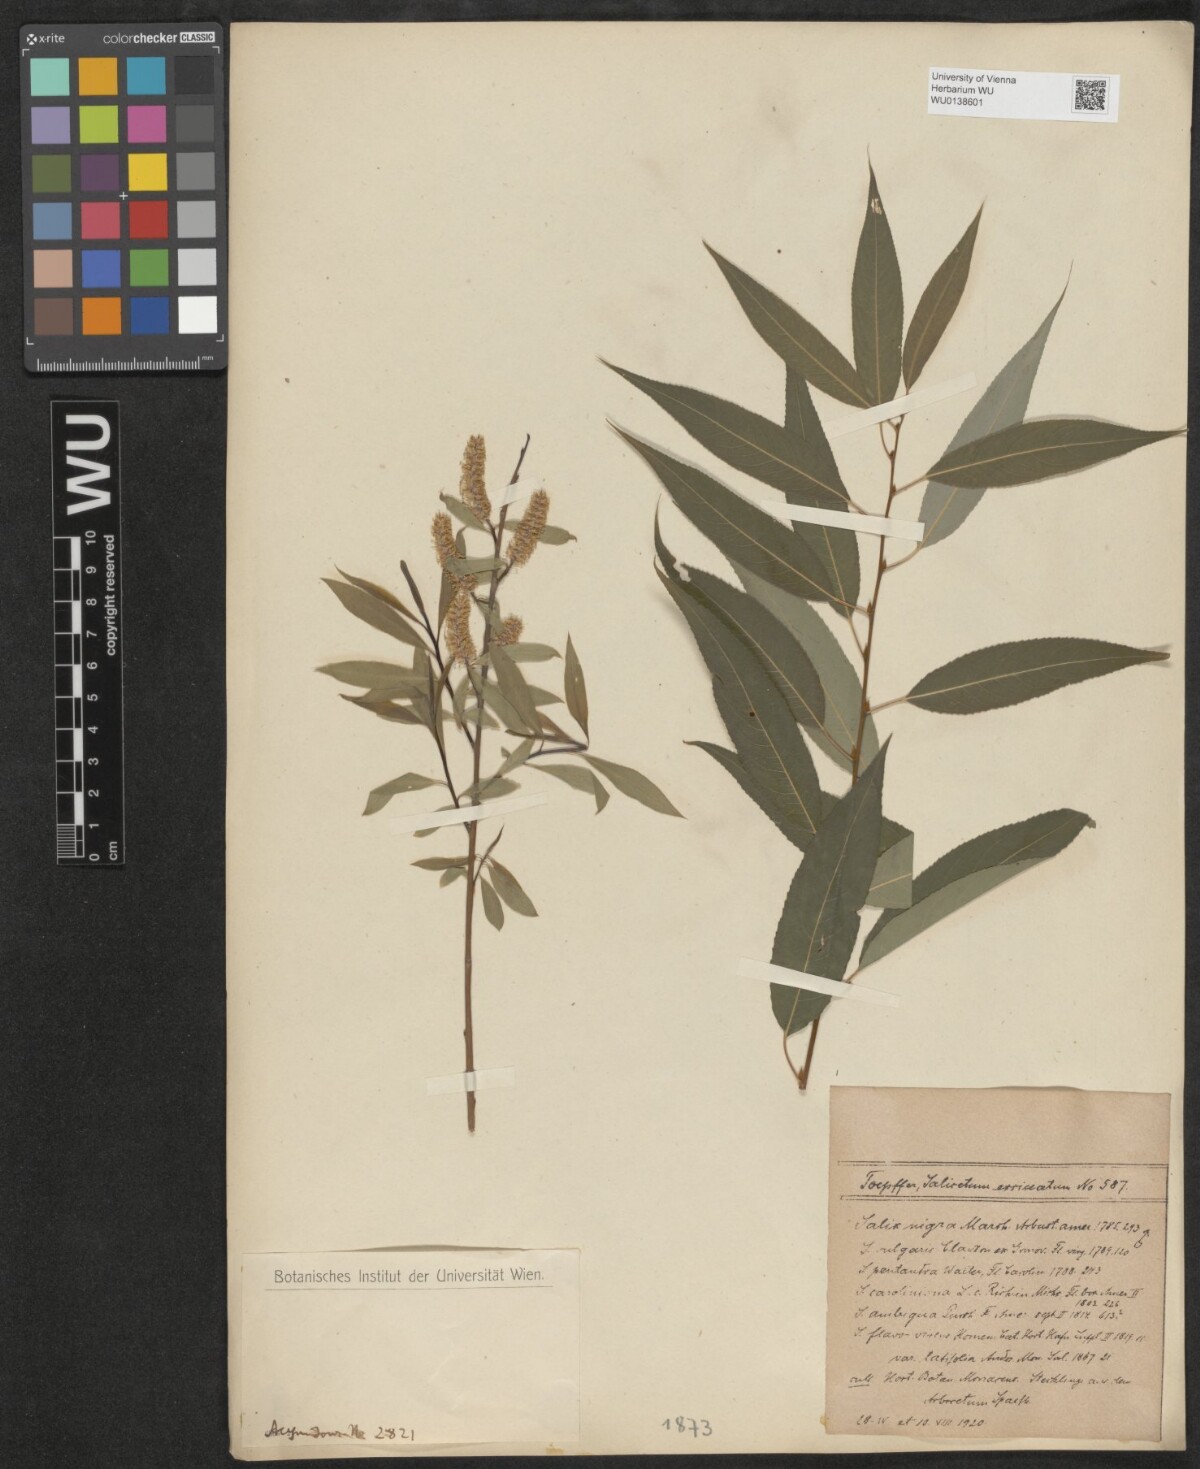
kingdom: Plantae
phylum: Tracheophyta
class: Magnoliopsida
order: Malpighiales
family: Salicaceae
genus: Salix
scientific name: Salix nigra
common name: Black willow
